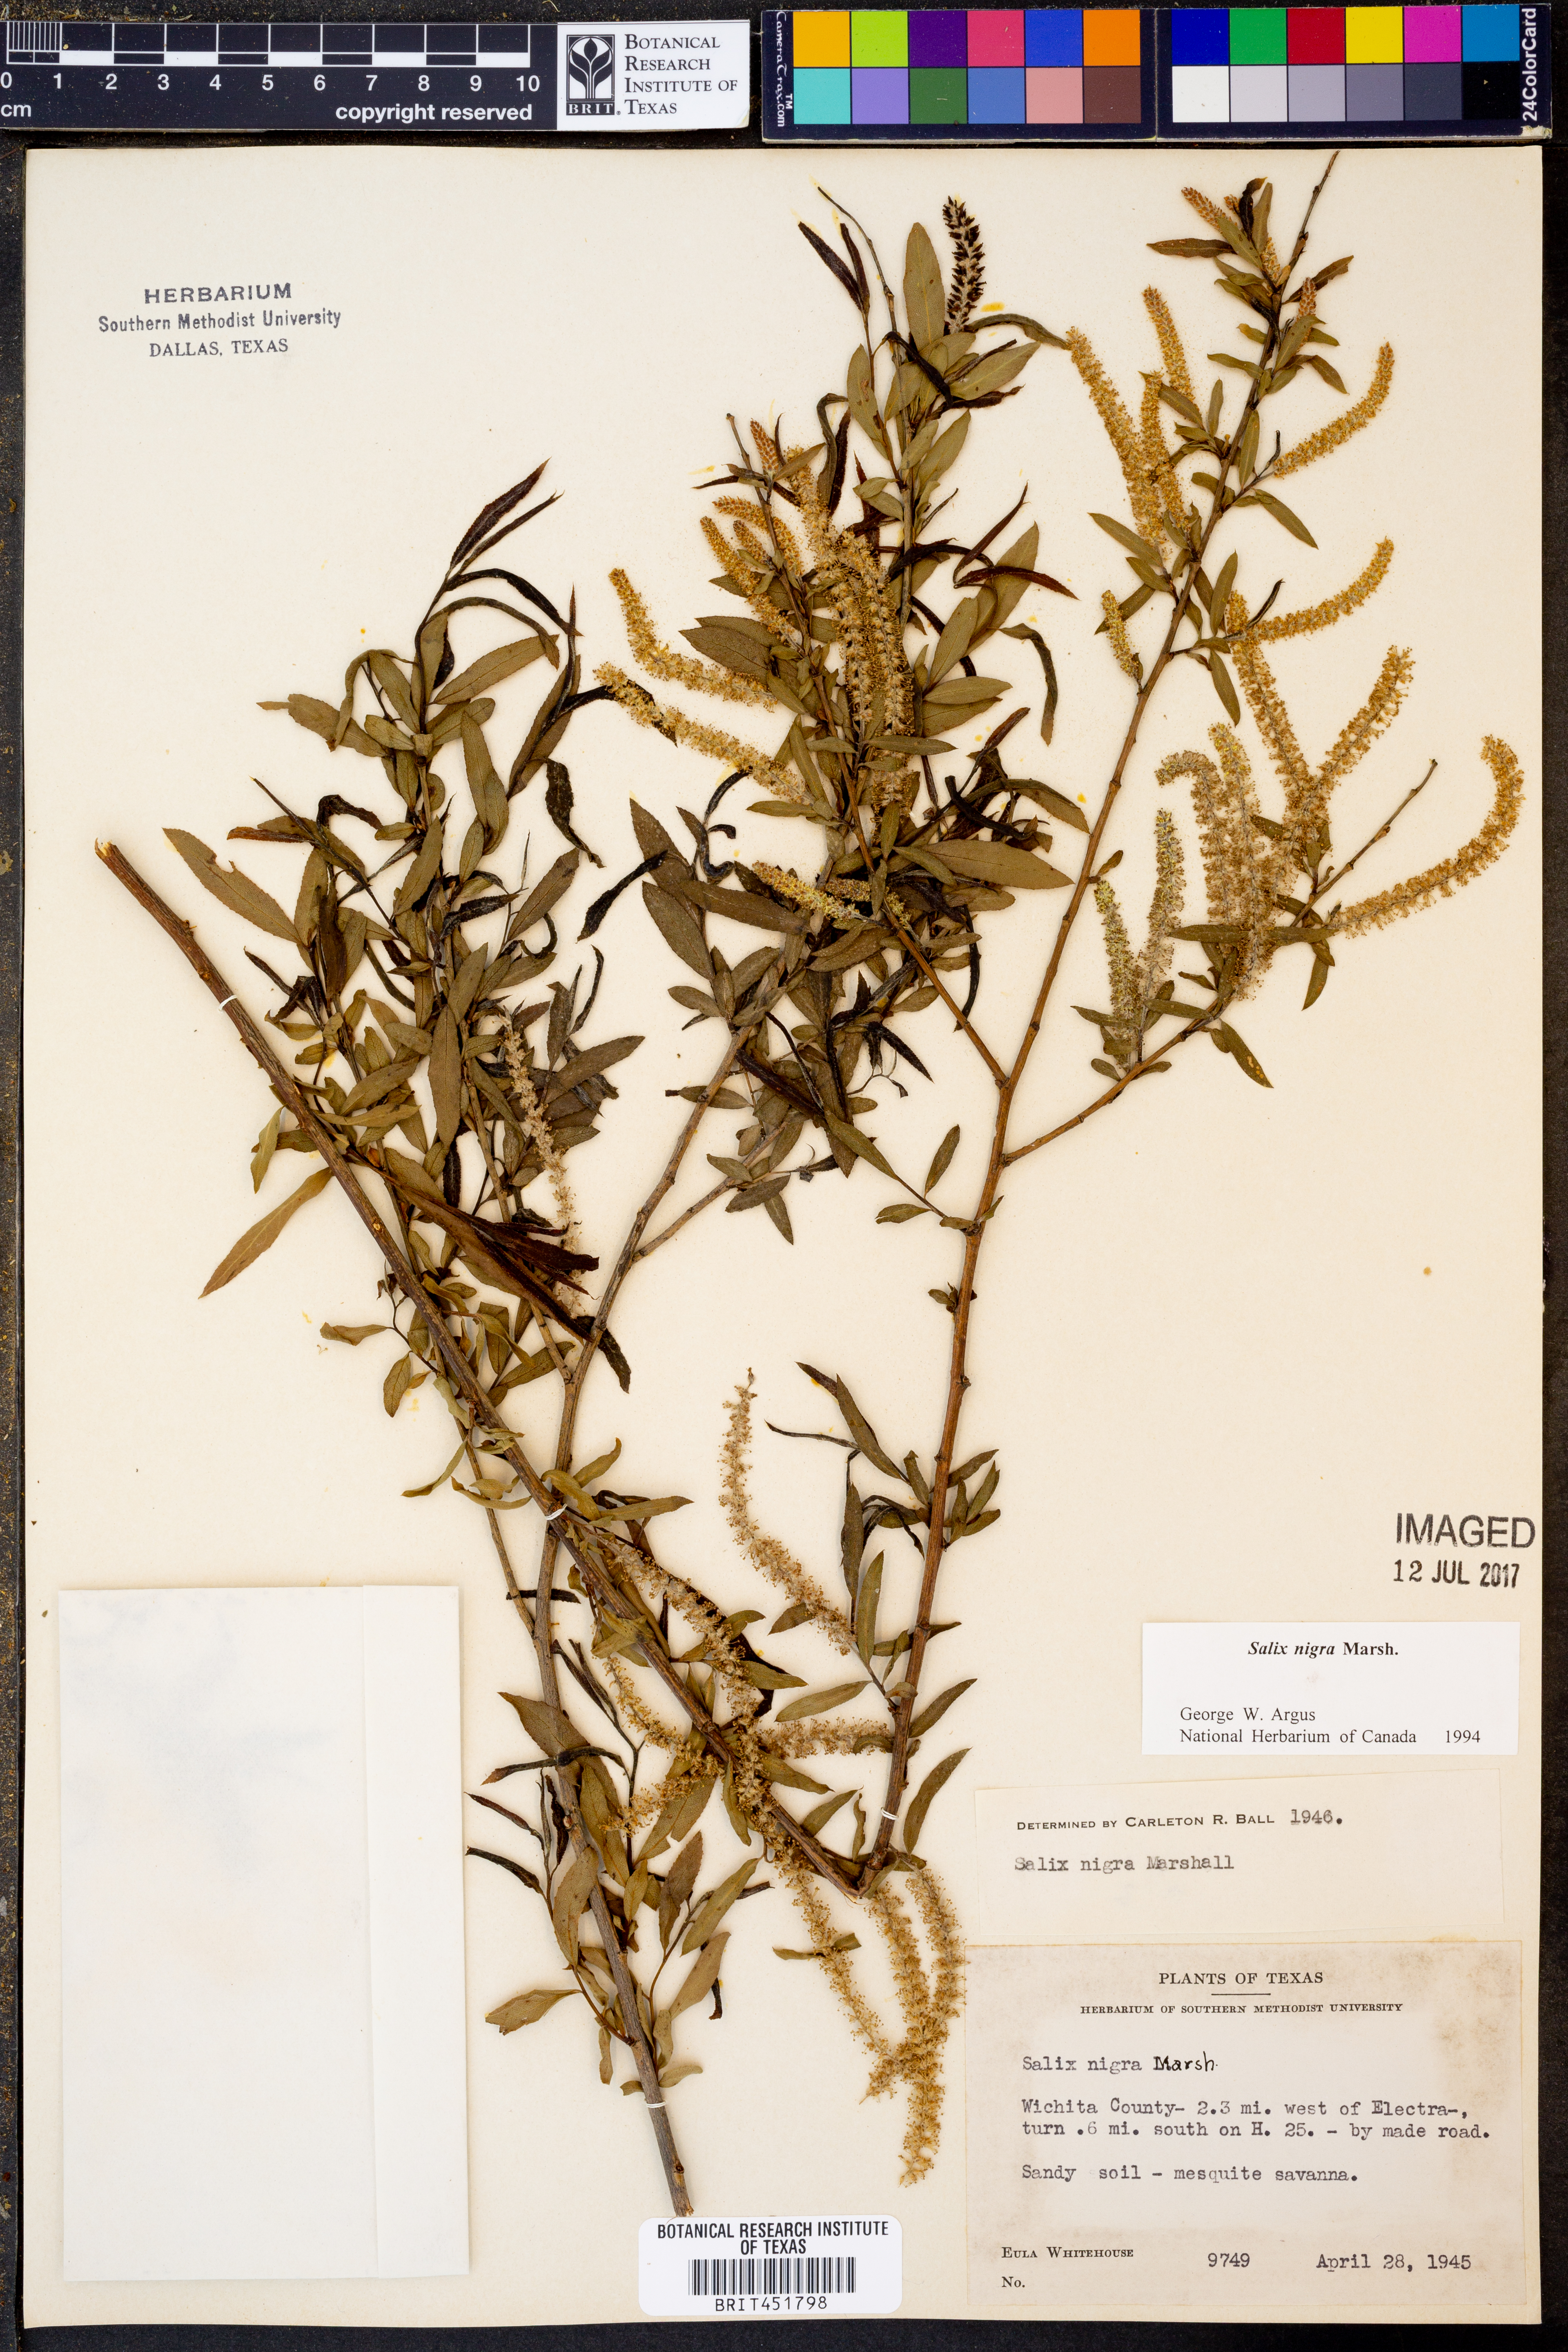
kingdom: Plantae
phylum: Tracheophyta
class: Magnoliopsida
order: Malpighiales
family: Salicaceae
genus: Salix
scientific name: Salix nigra
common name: Black willow
